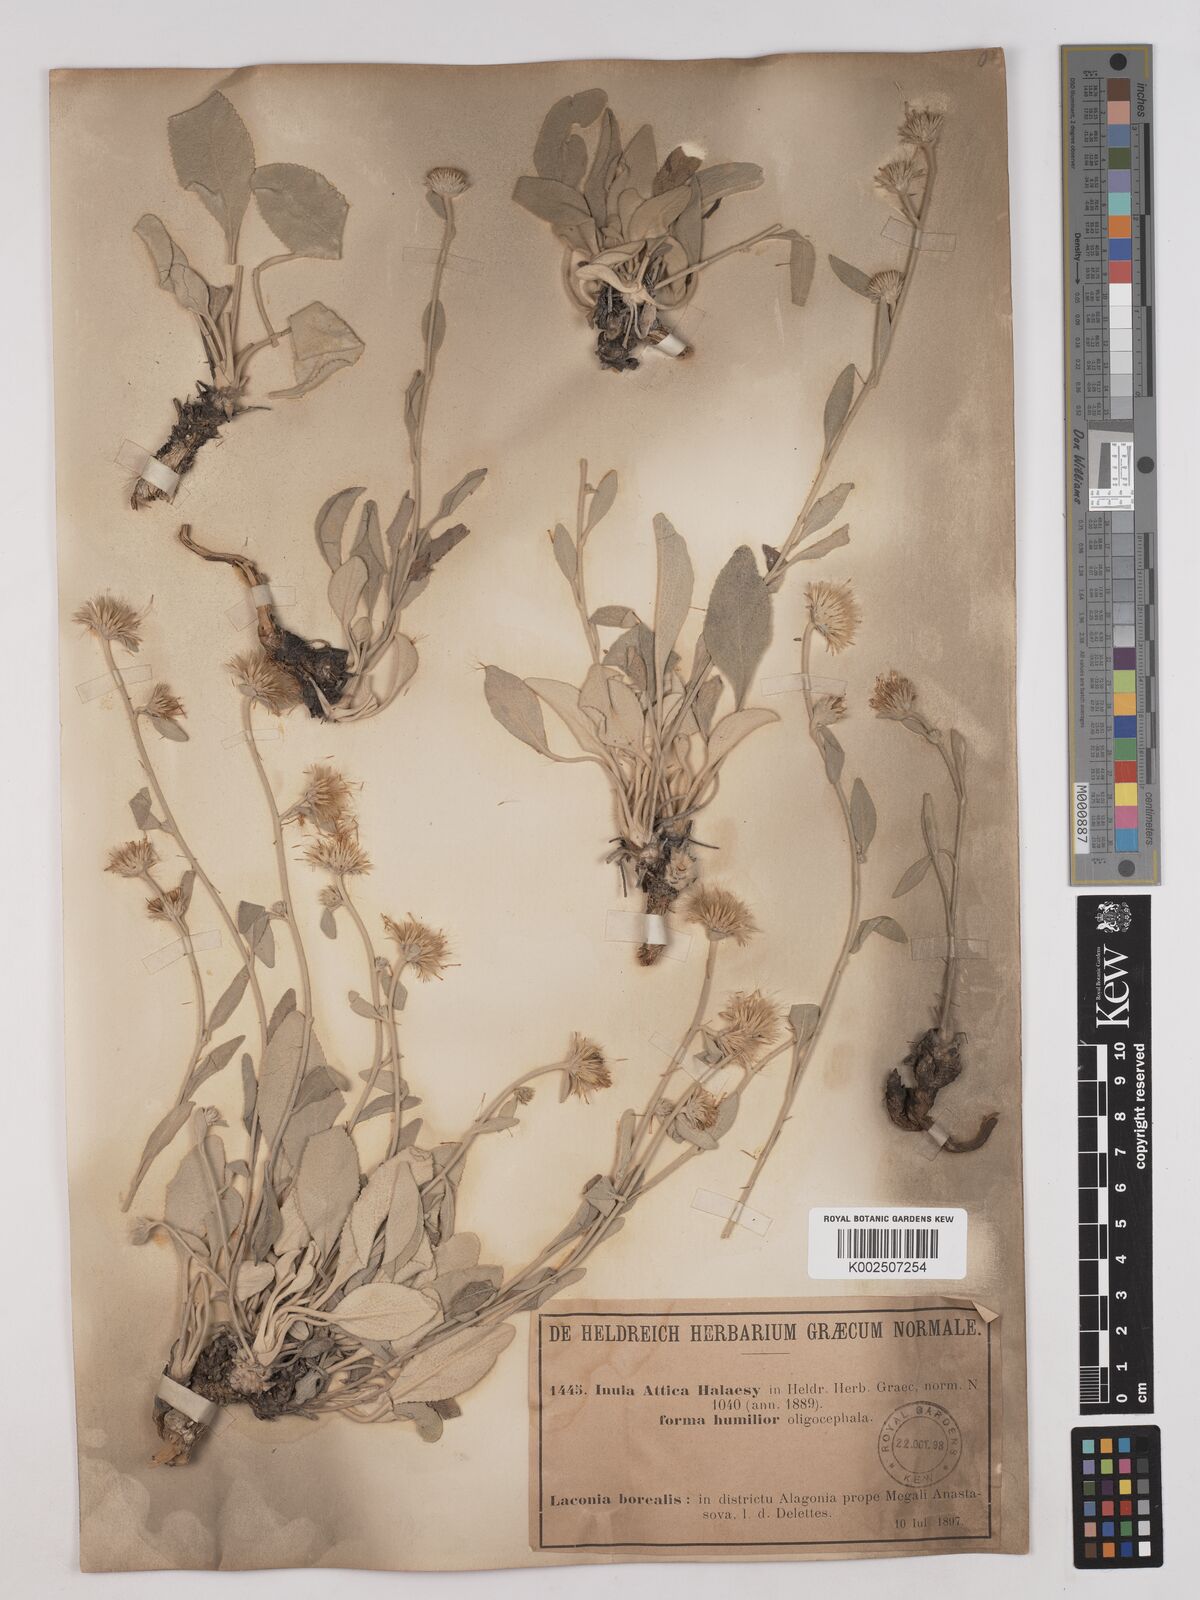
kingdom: Plantae
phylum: Tracheophyta
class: Magnoliopsida
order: Asterales
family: Asteraceae
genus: Pentanema
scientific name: Pentanema verbascifolium
